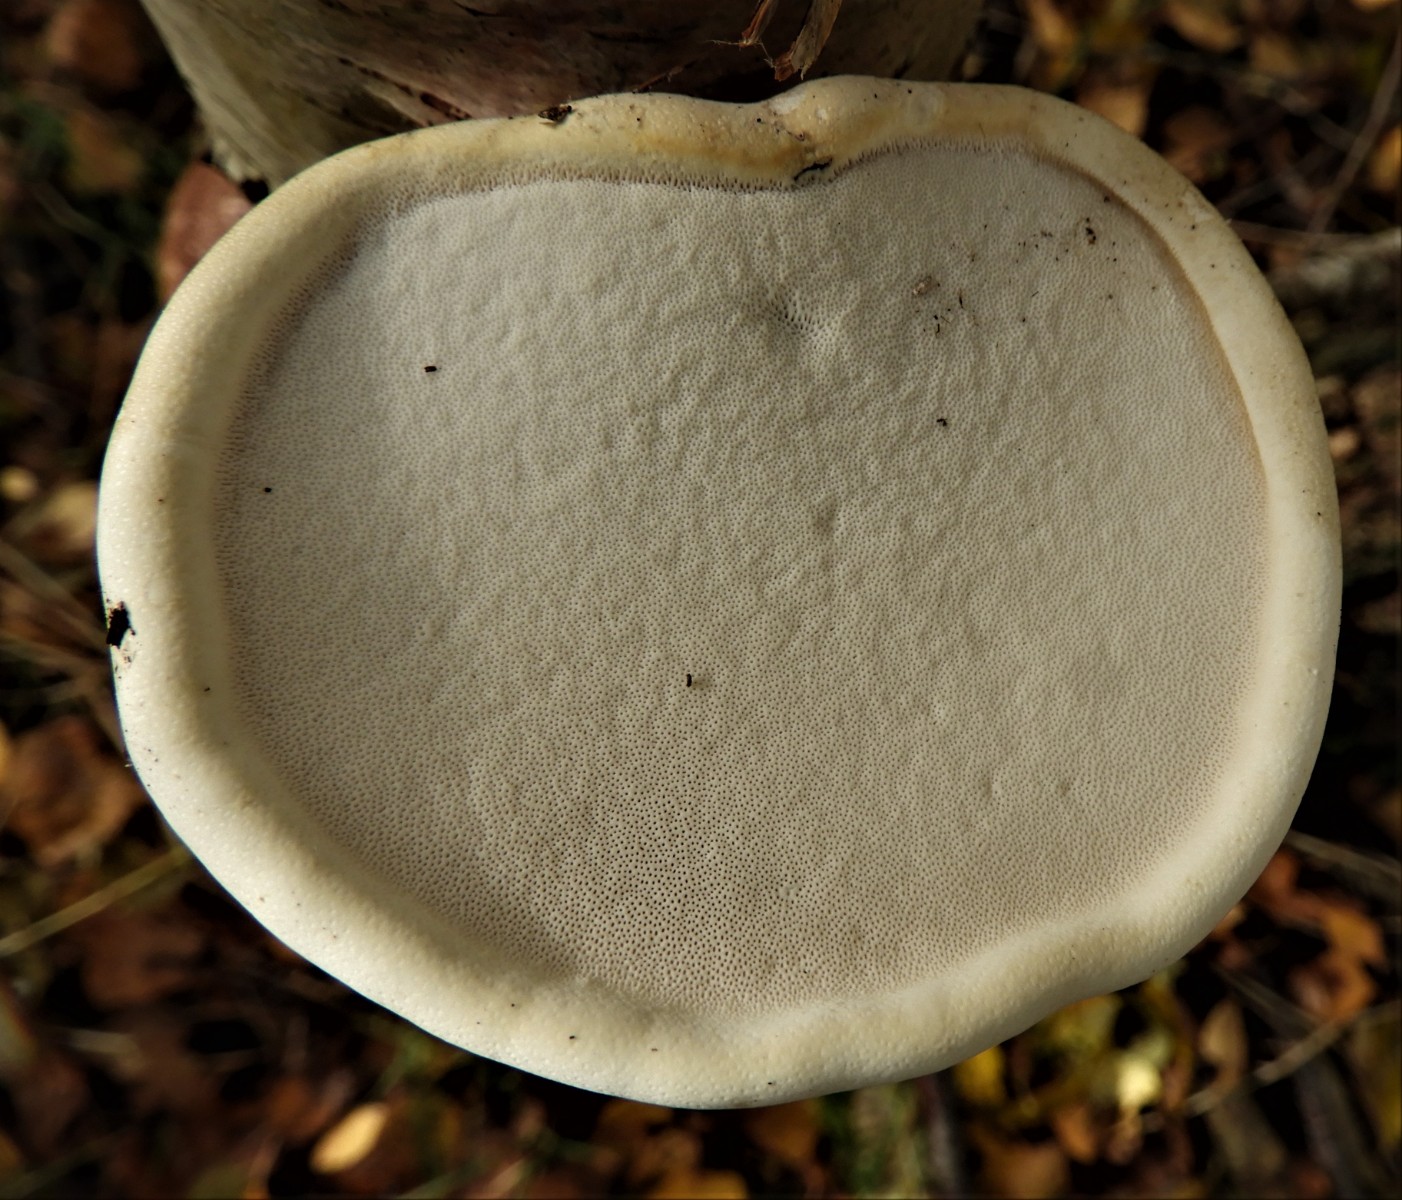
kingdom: Fungi
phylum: Basidiomycota
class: Agaricomycetes
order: Polyporales
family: Fomitopsidaceae
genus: Fomitopsis
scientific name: Fomitopsis betulina
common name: birkeporesvamp
